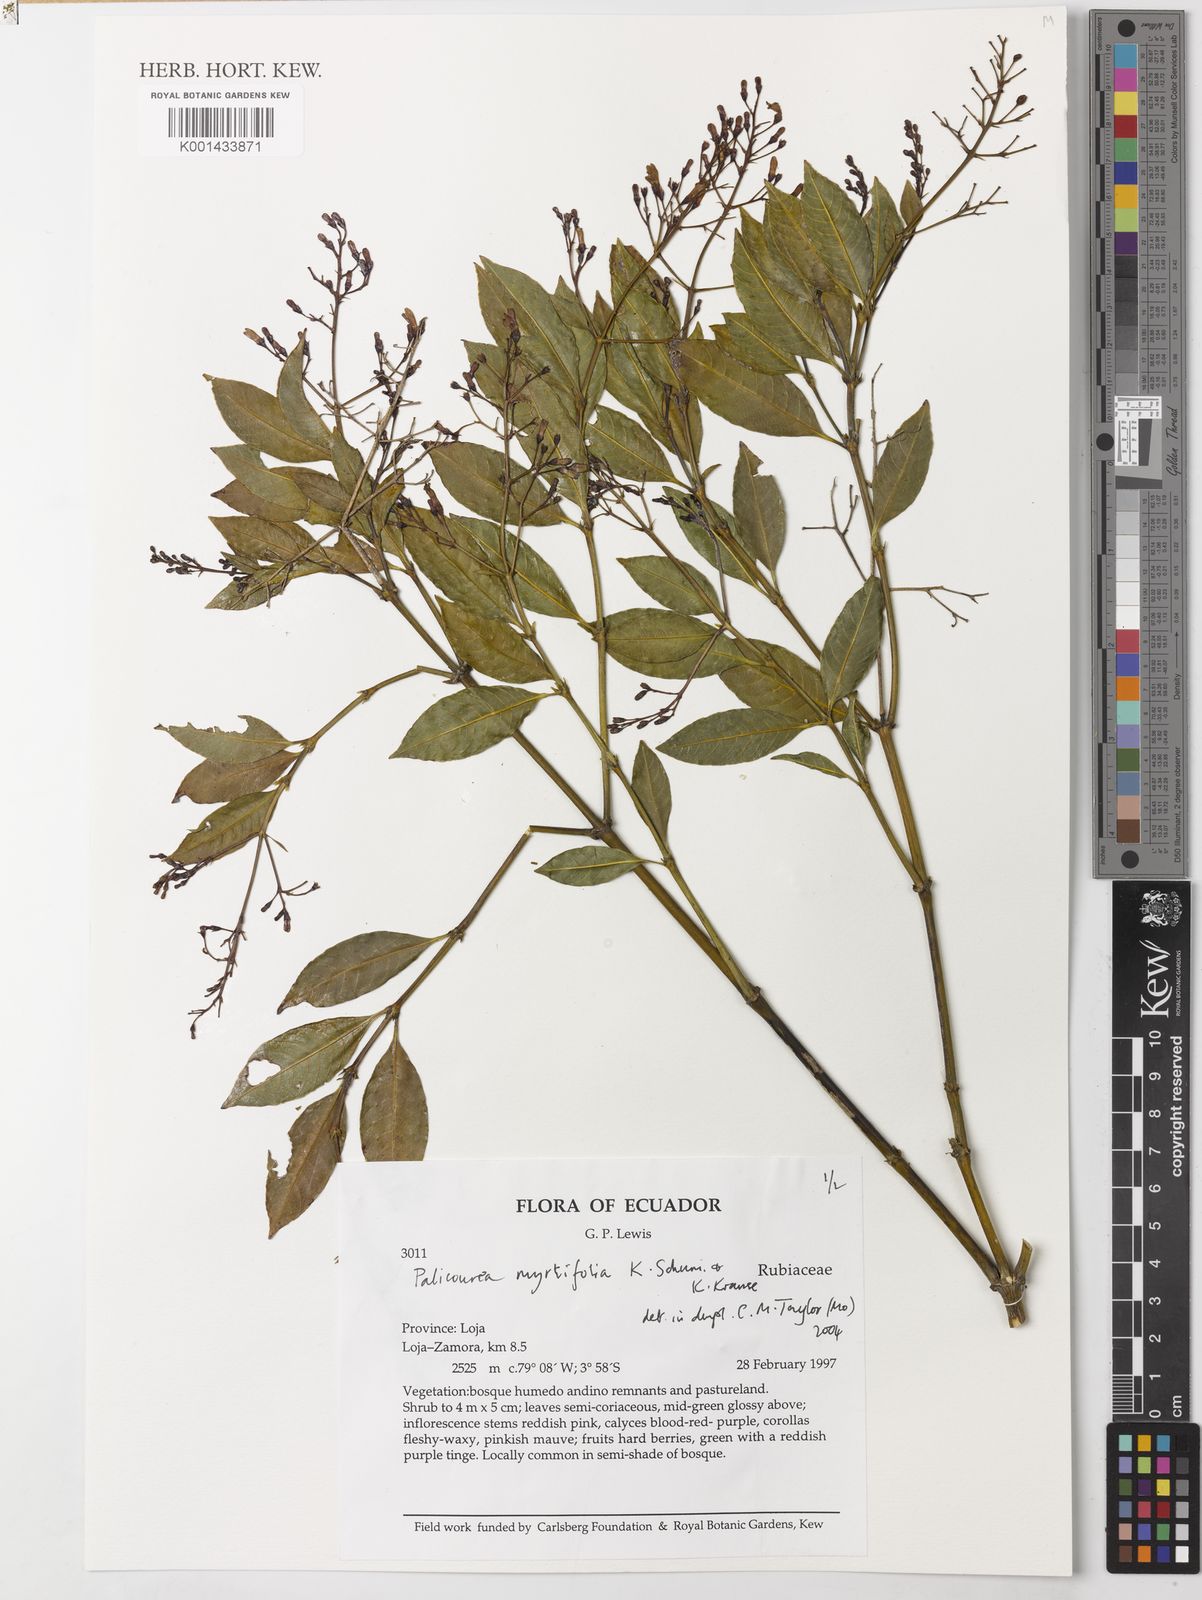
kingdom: Plantae
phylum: Tracheophyta
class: Magnoliopsida
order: Gentianales
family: Rubiaceae
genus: Palicourea
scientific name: Palicourea myrtifolia
